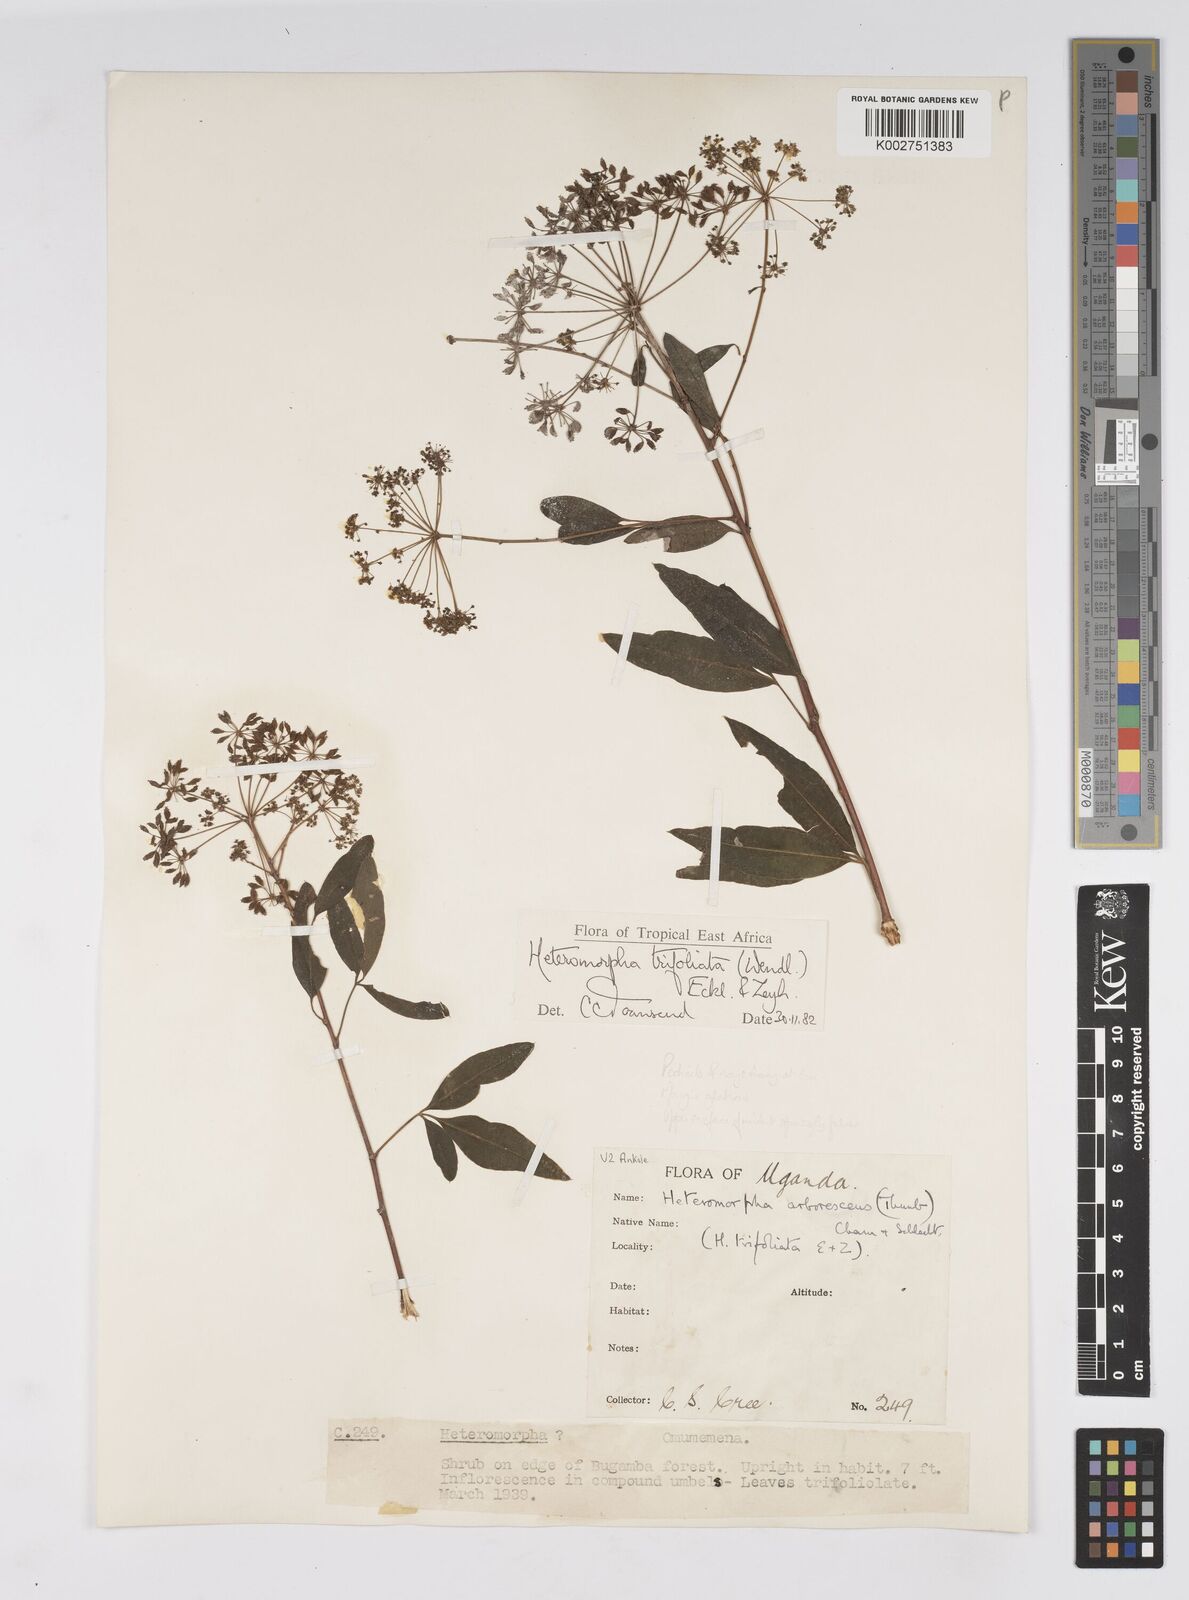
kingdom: Plantae
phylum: Tracheophyta
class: Magnoliopsida
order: Apiales
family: Apiaceae
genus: Heteromorpha
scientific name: Heteromorpha arborescens
